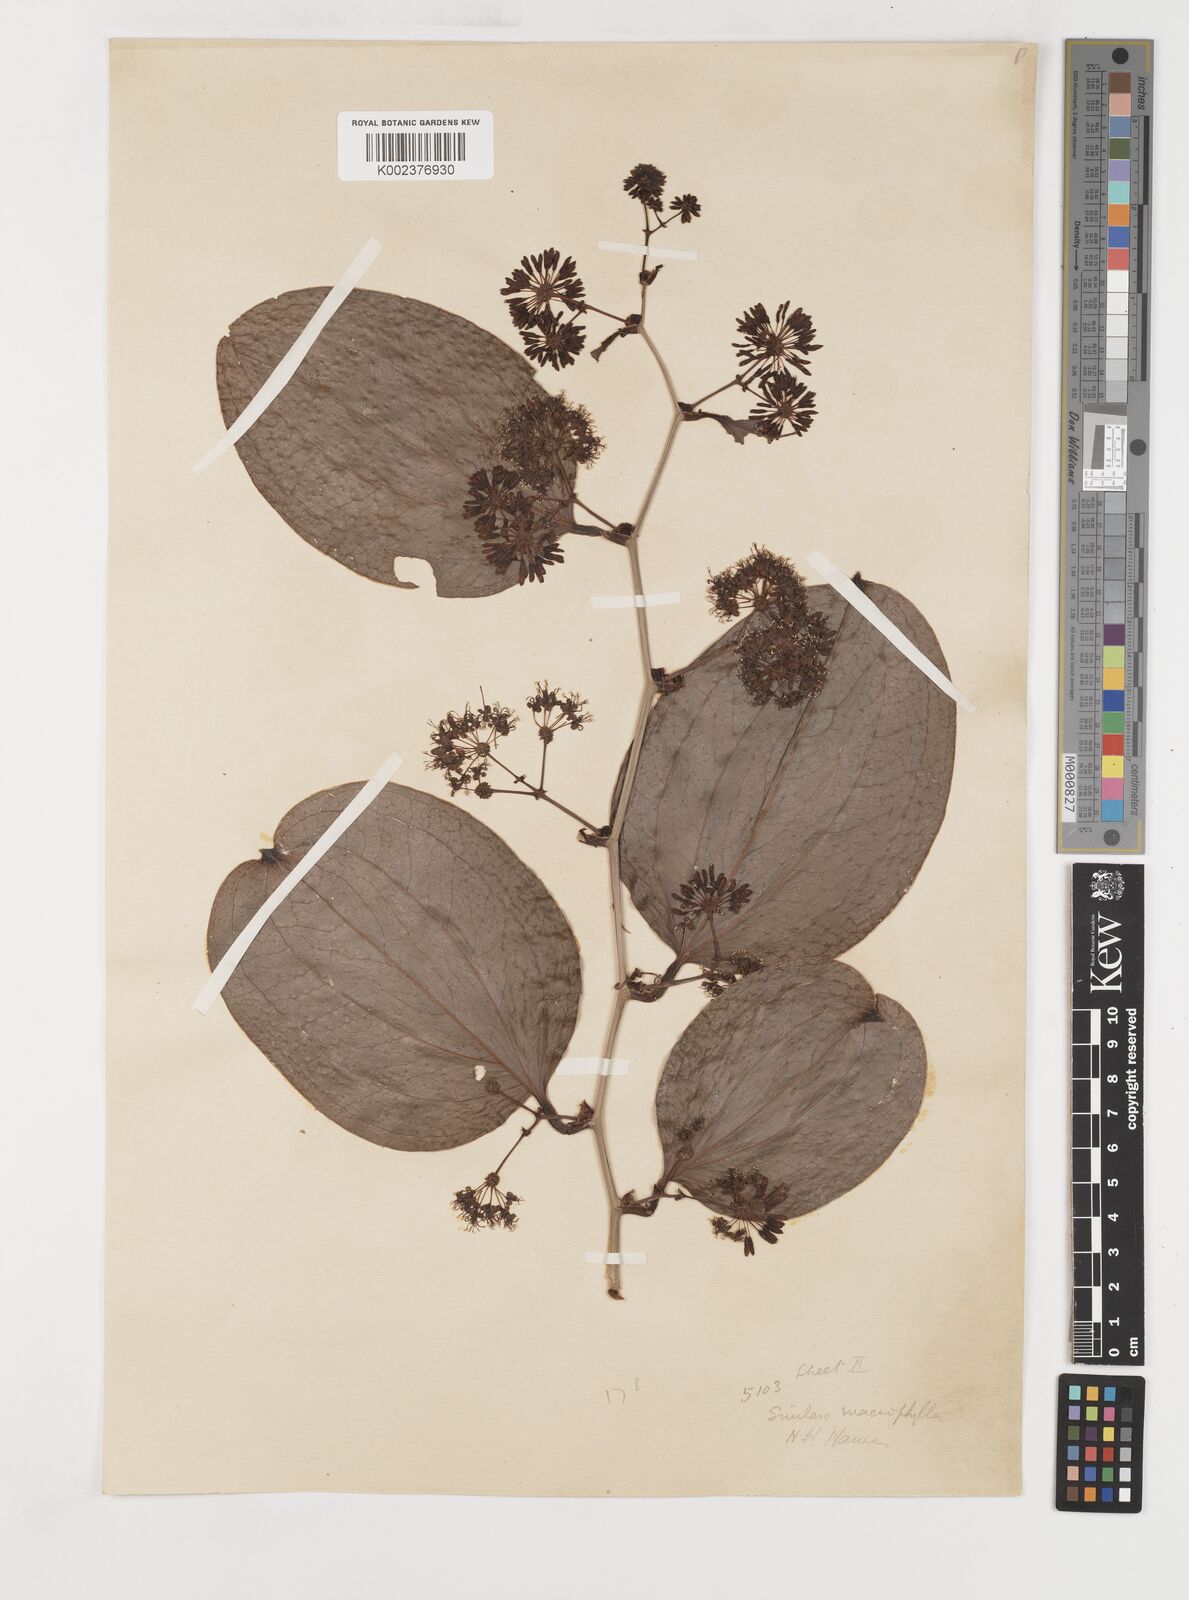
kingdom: Plantae
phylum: Tracheophyta
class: Liliopsida
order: Liliales
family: Smilacaceae
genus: Smilax
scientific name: Smilax ovalifolia
